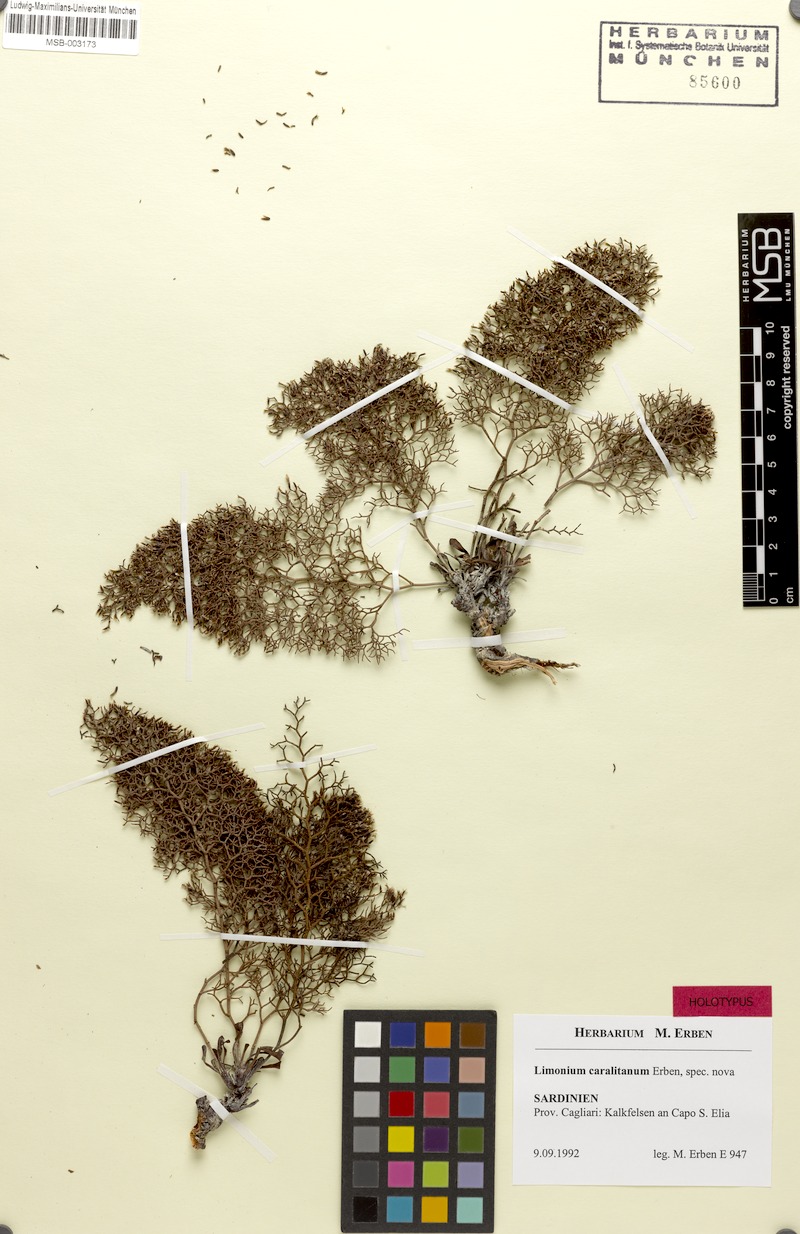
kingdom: Plantae
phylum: Tracheophyta
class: Magnoliopsida
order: Caryophyllales
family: Plumbaginaceae
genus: Limonium
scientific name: Limonium sardoum
